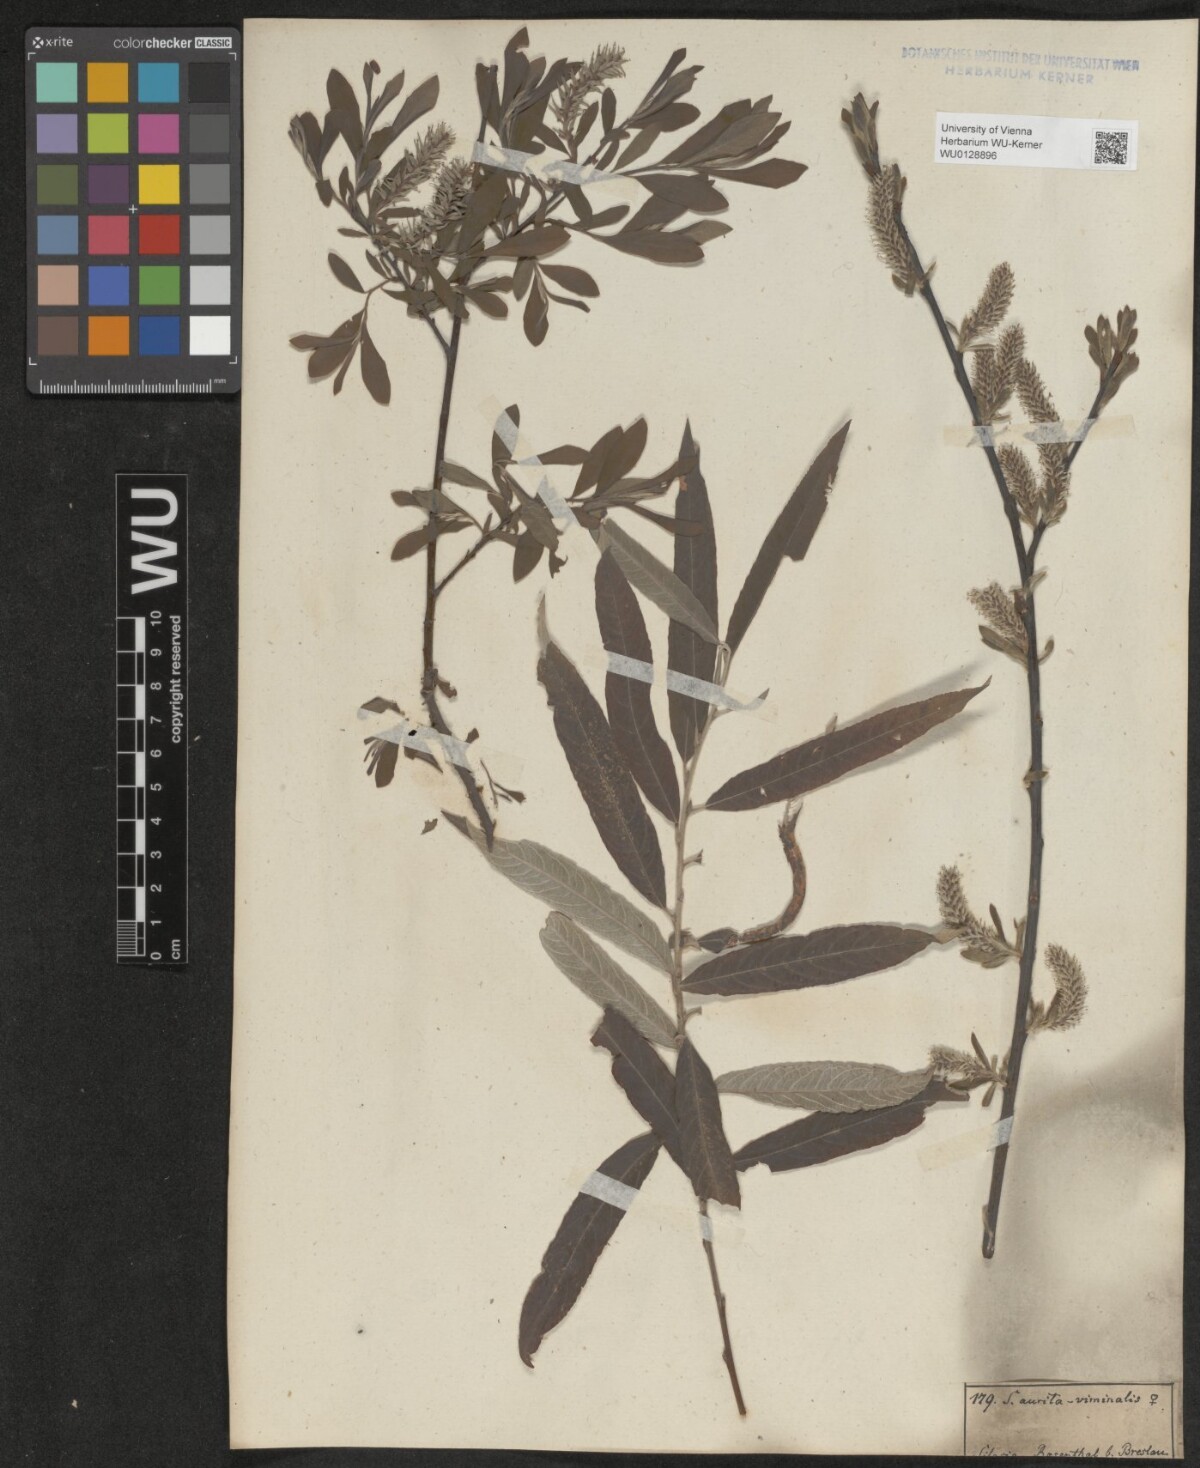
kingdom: Plantae
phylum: Tracheophyta
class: Magnoliopsida
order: Malpighiales
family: Salicaceae
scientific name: Salicaceae
